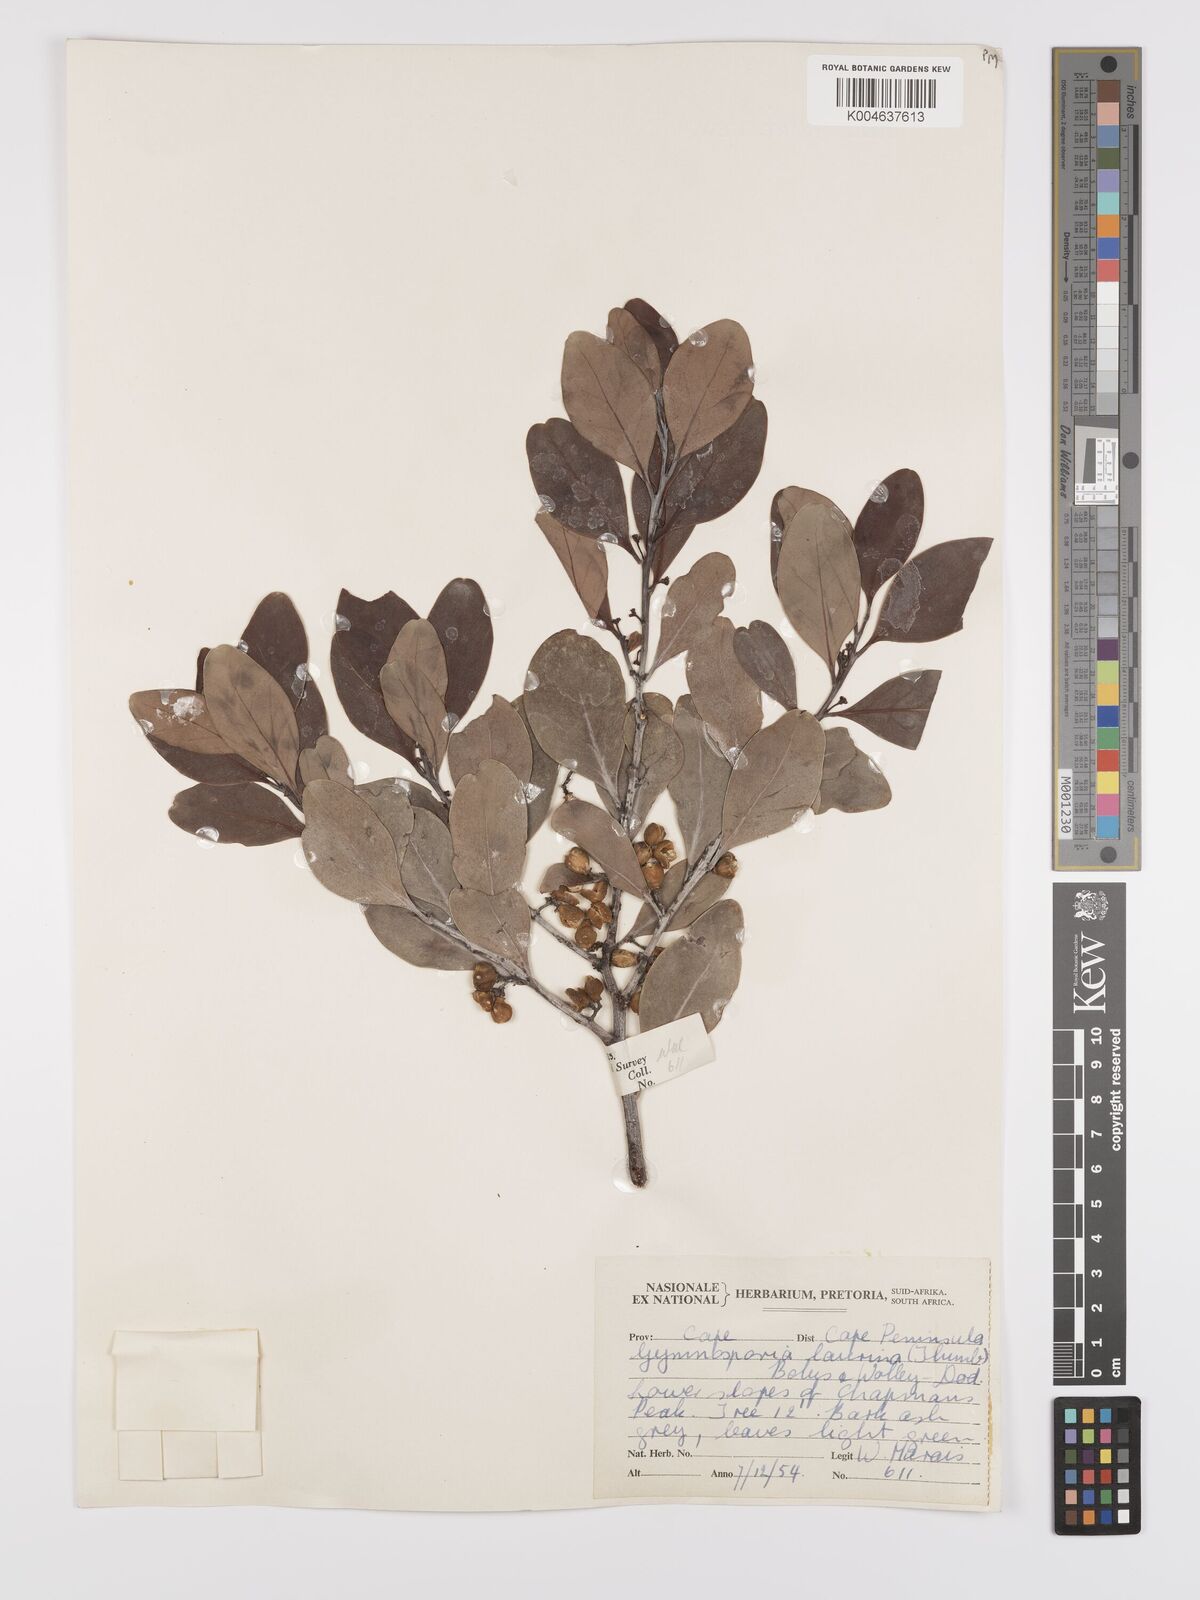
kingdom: Plantae
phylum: Tracheophyta
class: Magnoliopsida
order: Celastrales
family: Celastraceae
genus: Monteverdia
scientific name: Monteverdia laurina
